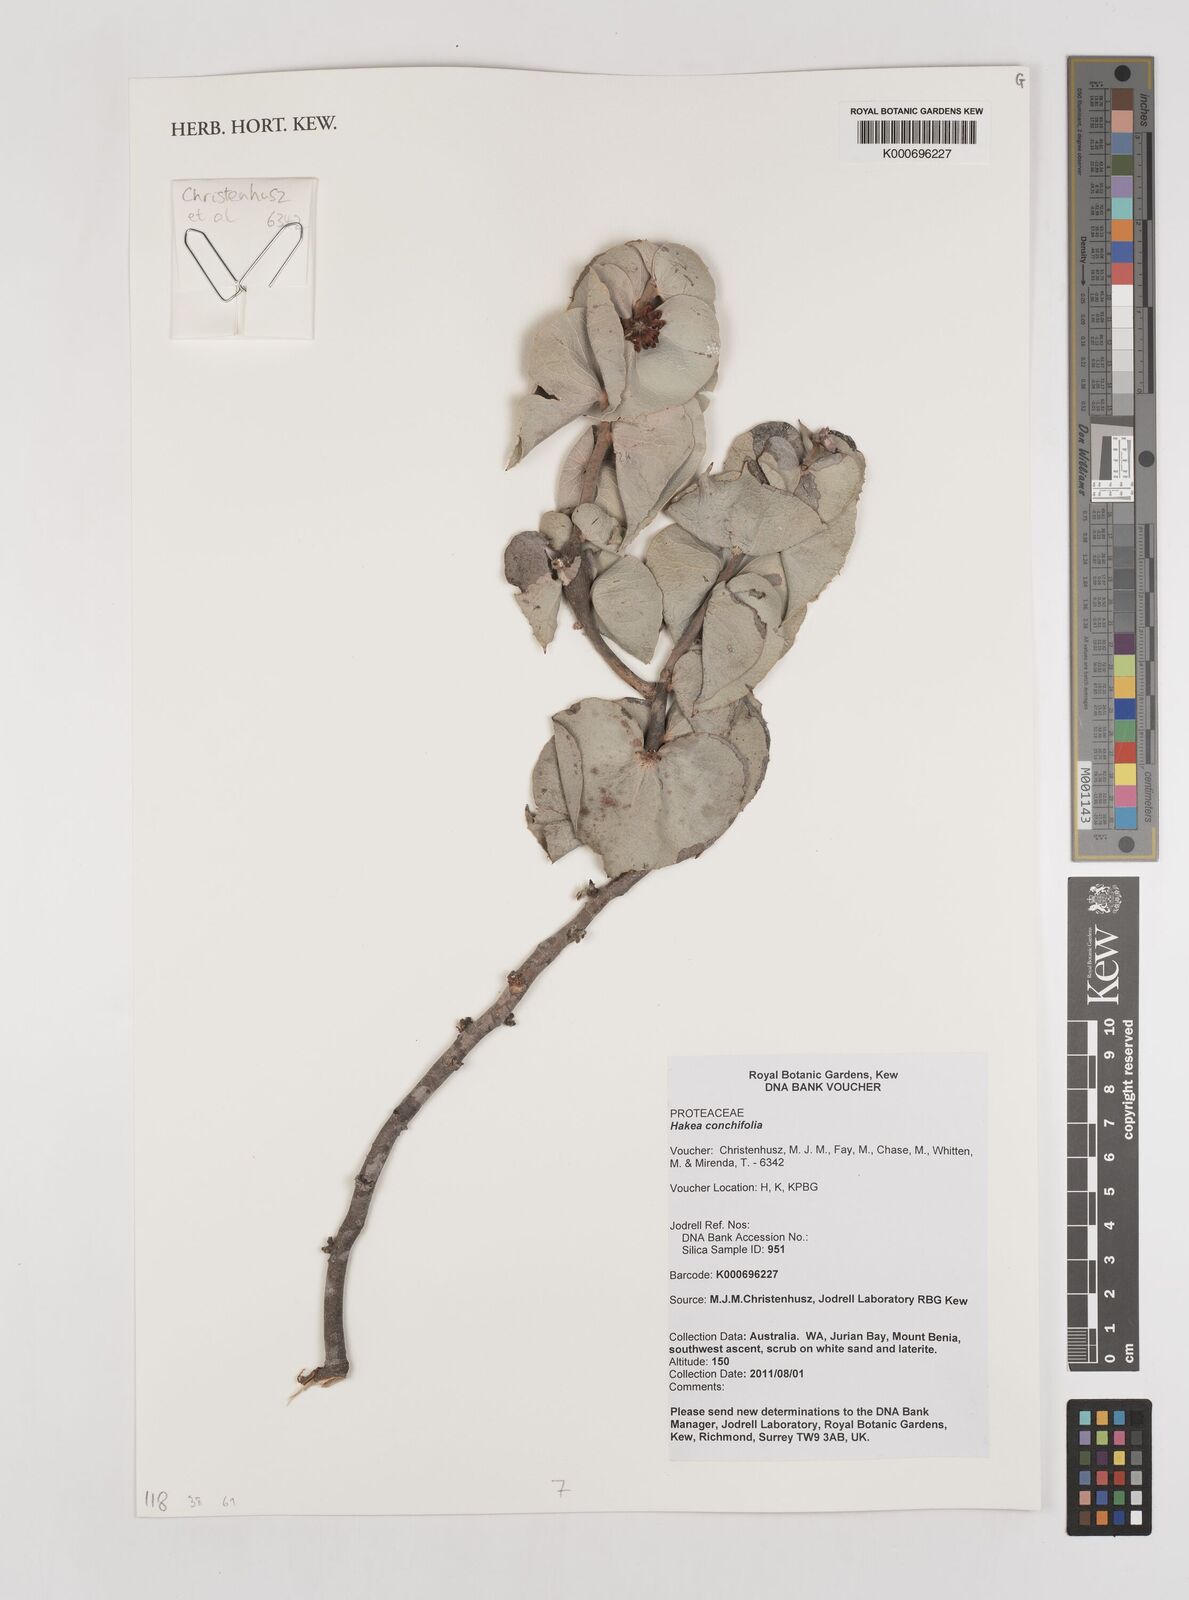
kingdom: Plantae
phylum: Tracheophyta
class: Magnoliopsida
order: Proteales
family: Proteaceae
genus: Hakea
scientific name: Hakea conchifolia
